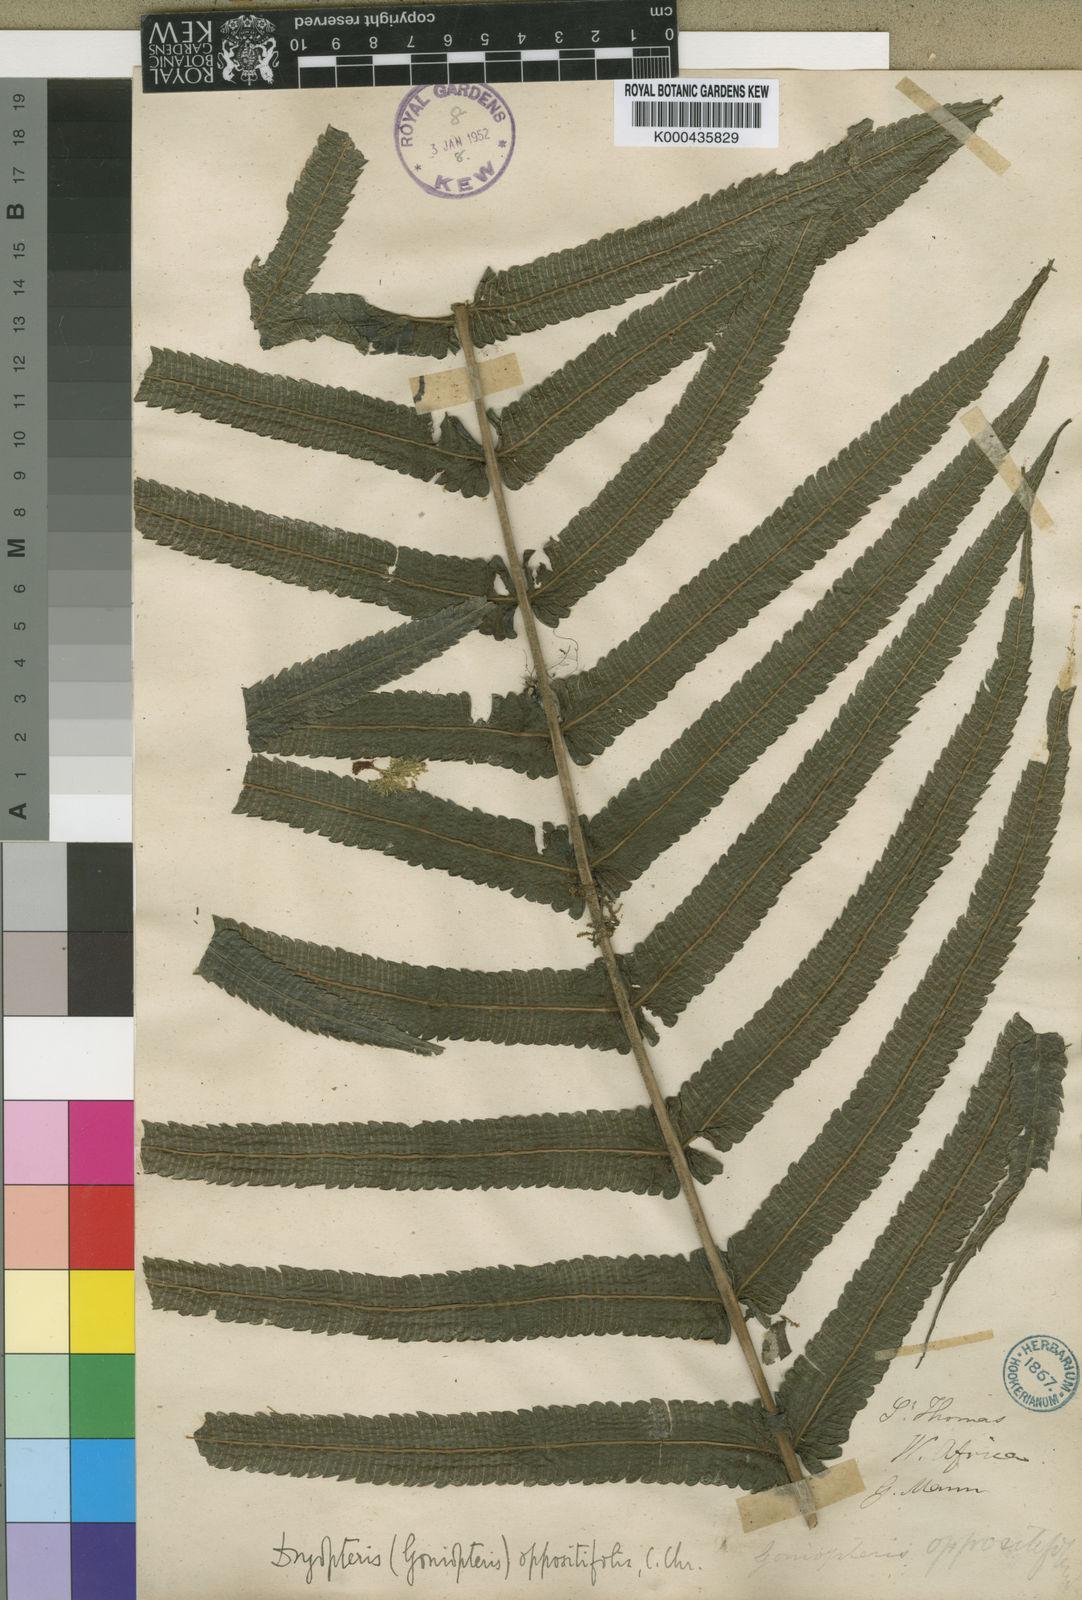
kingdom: Plantae
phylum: Tracheophyta
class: Polypodiopsida
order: Polypodiales
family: Thelypteridaceae
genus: Menisorus
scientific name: Menisorus oppositifolius
